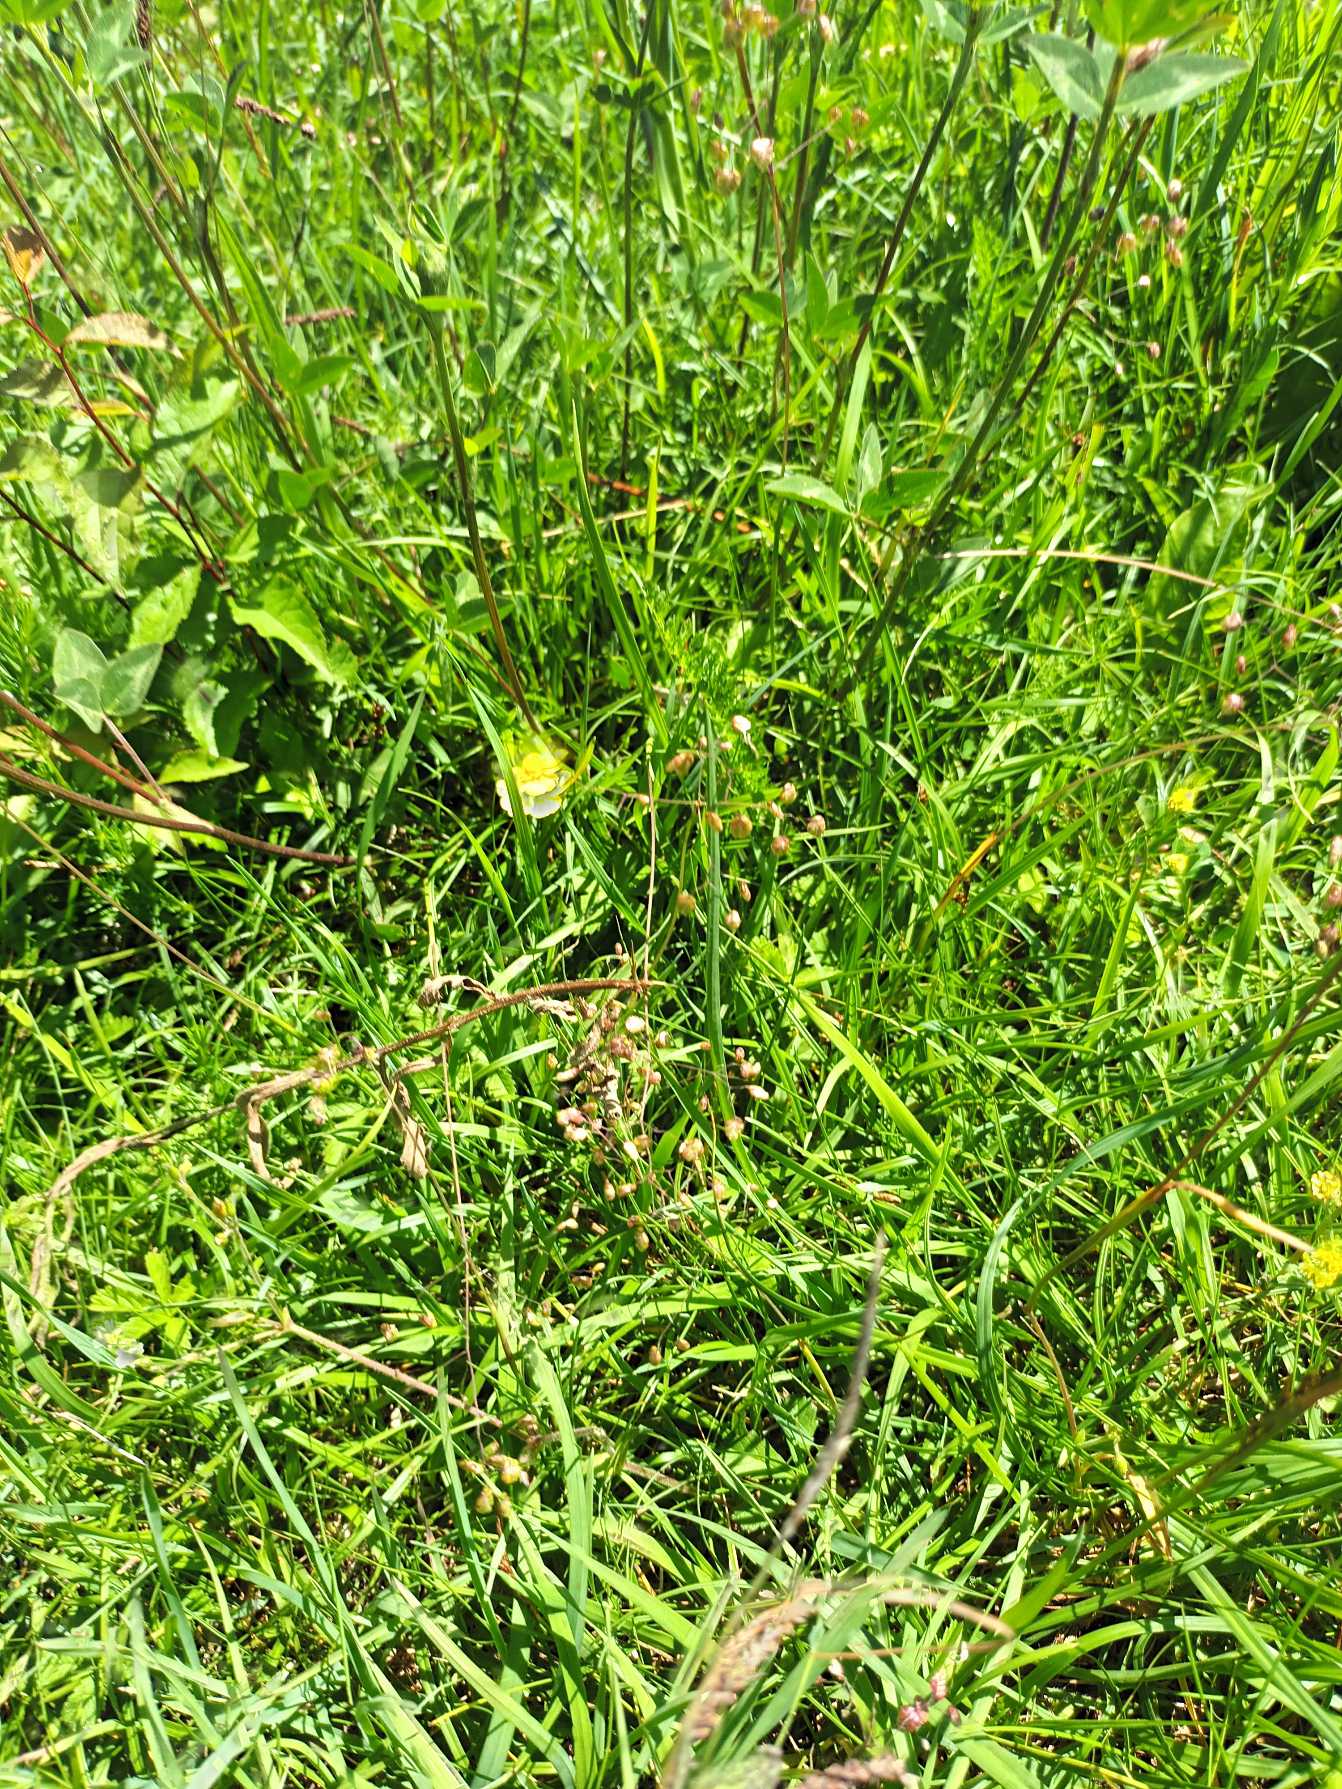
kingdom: Plantae
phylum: Tracheophyta
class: Liliopsida
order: Poales
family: Poaceae
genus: Briza
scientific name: Briza media
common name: Hjertegræs
